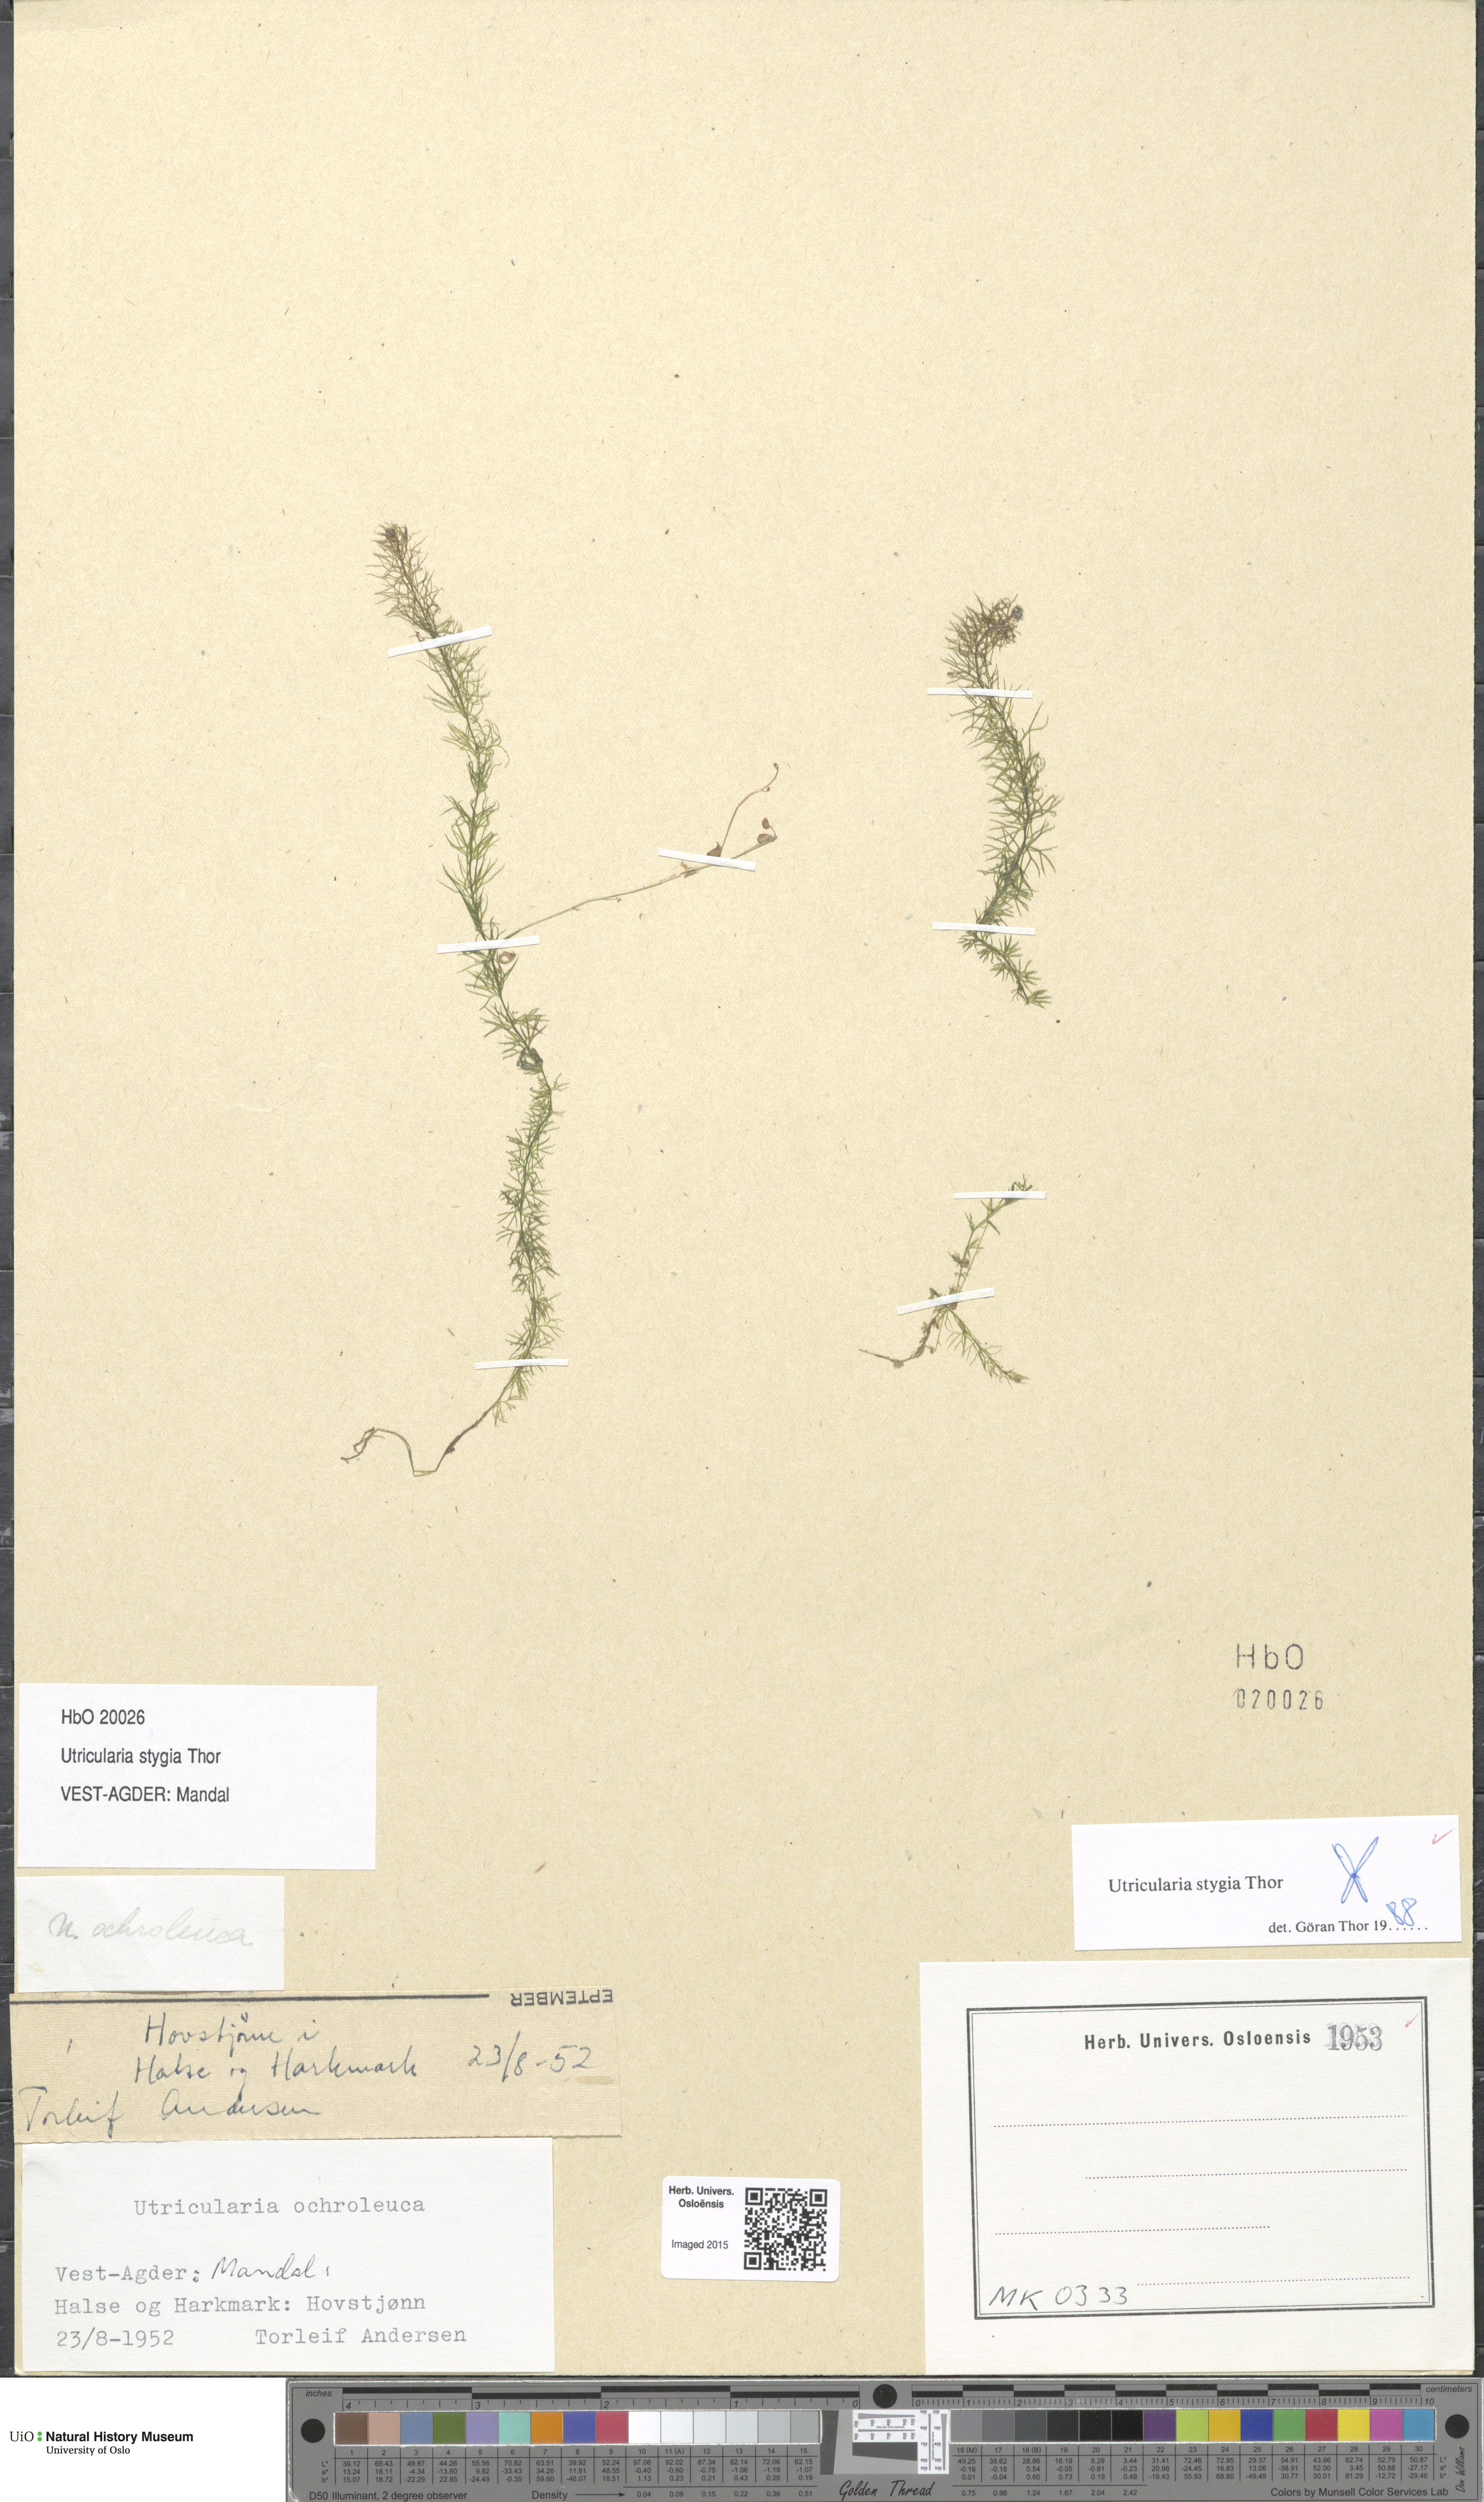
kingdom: Plantae
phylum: Tracheophyta
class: Magnoliopsida
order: Lamiales
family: Lentibulariaceae
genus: Utricularia
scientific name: Utricularia ochroleuca
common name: Pale bladderwort
